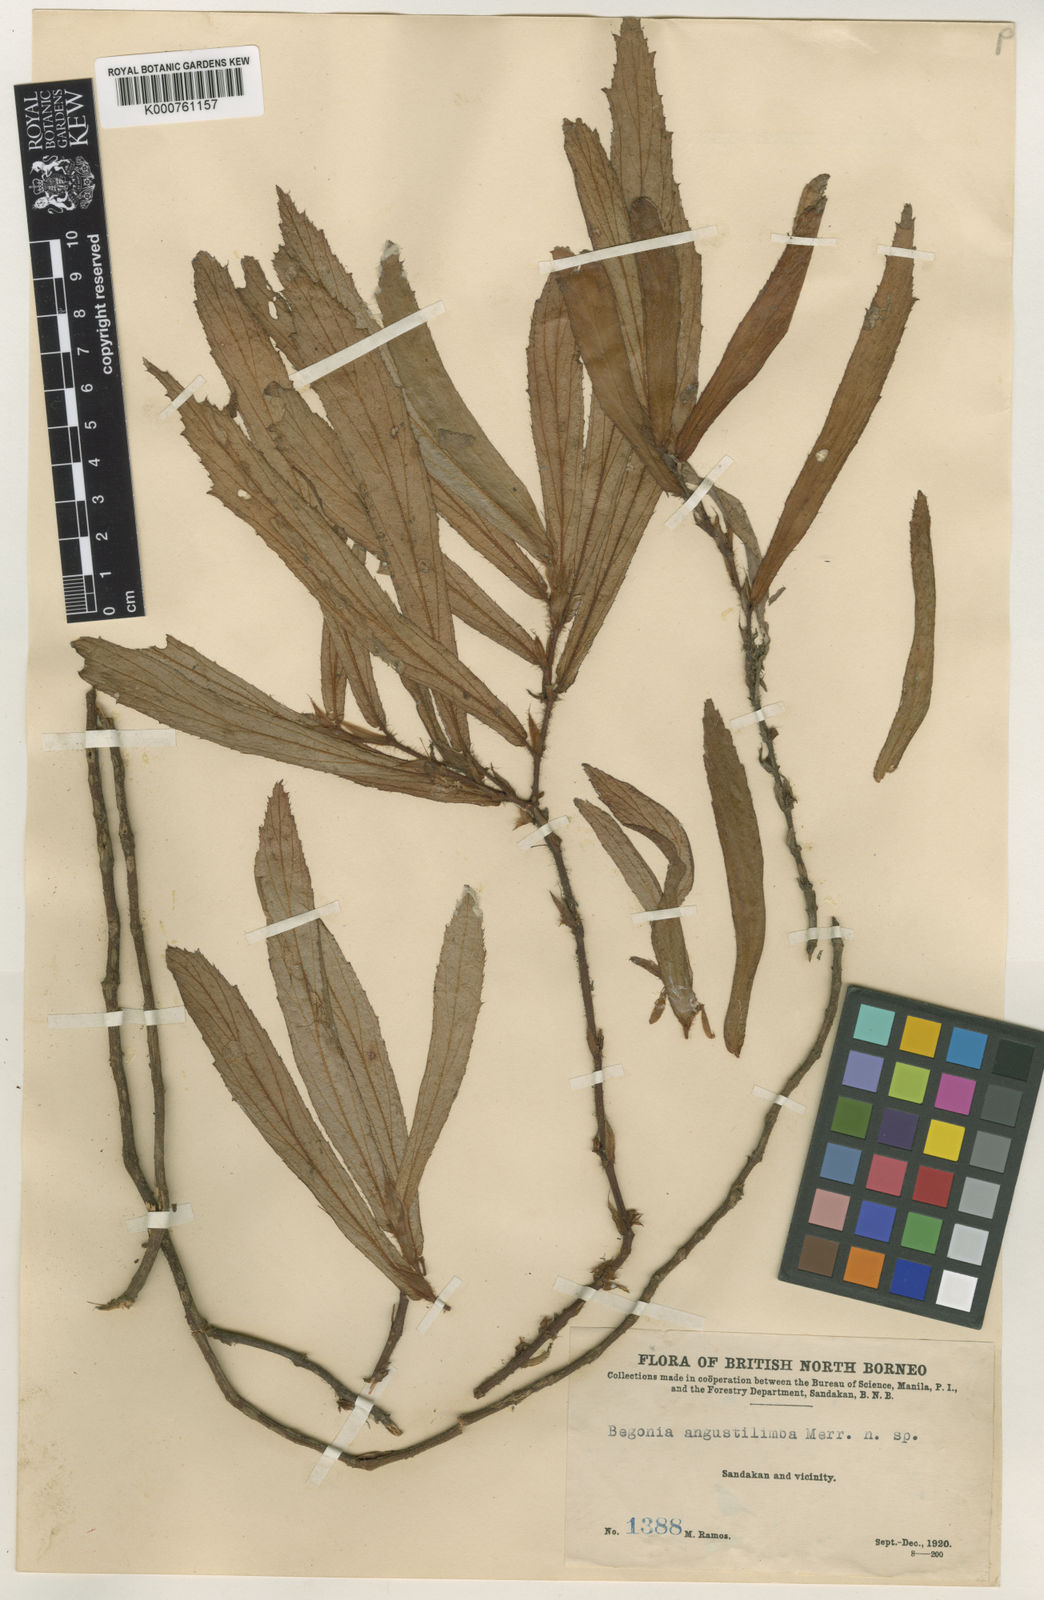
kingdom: Plantae
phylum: Tracheophyta
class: Magnoliopsida
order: Cucurbitales
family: Begoniaceae
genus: Begonia
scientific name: Begonia angustilimba
